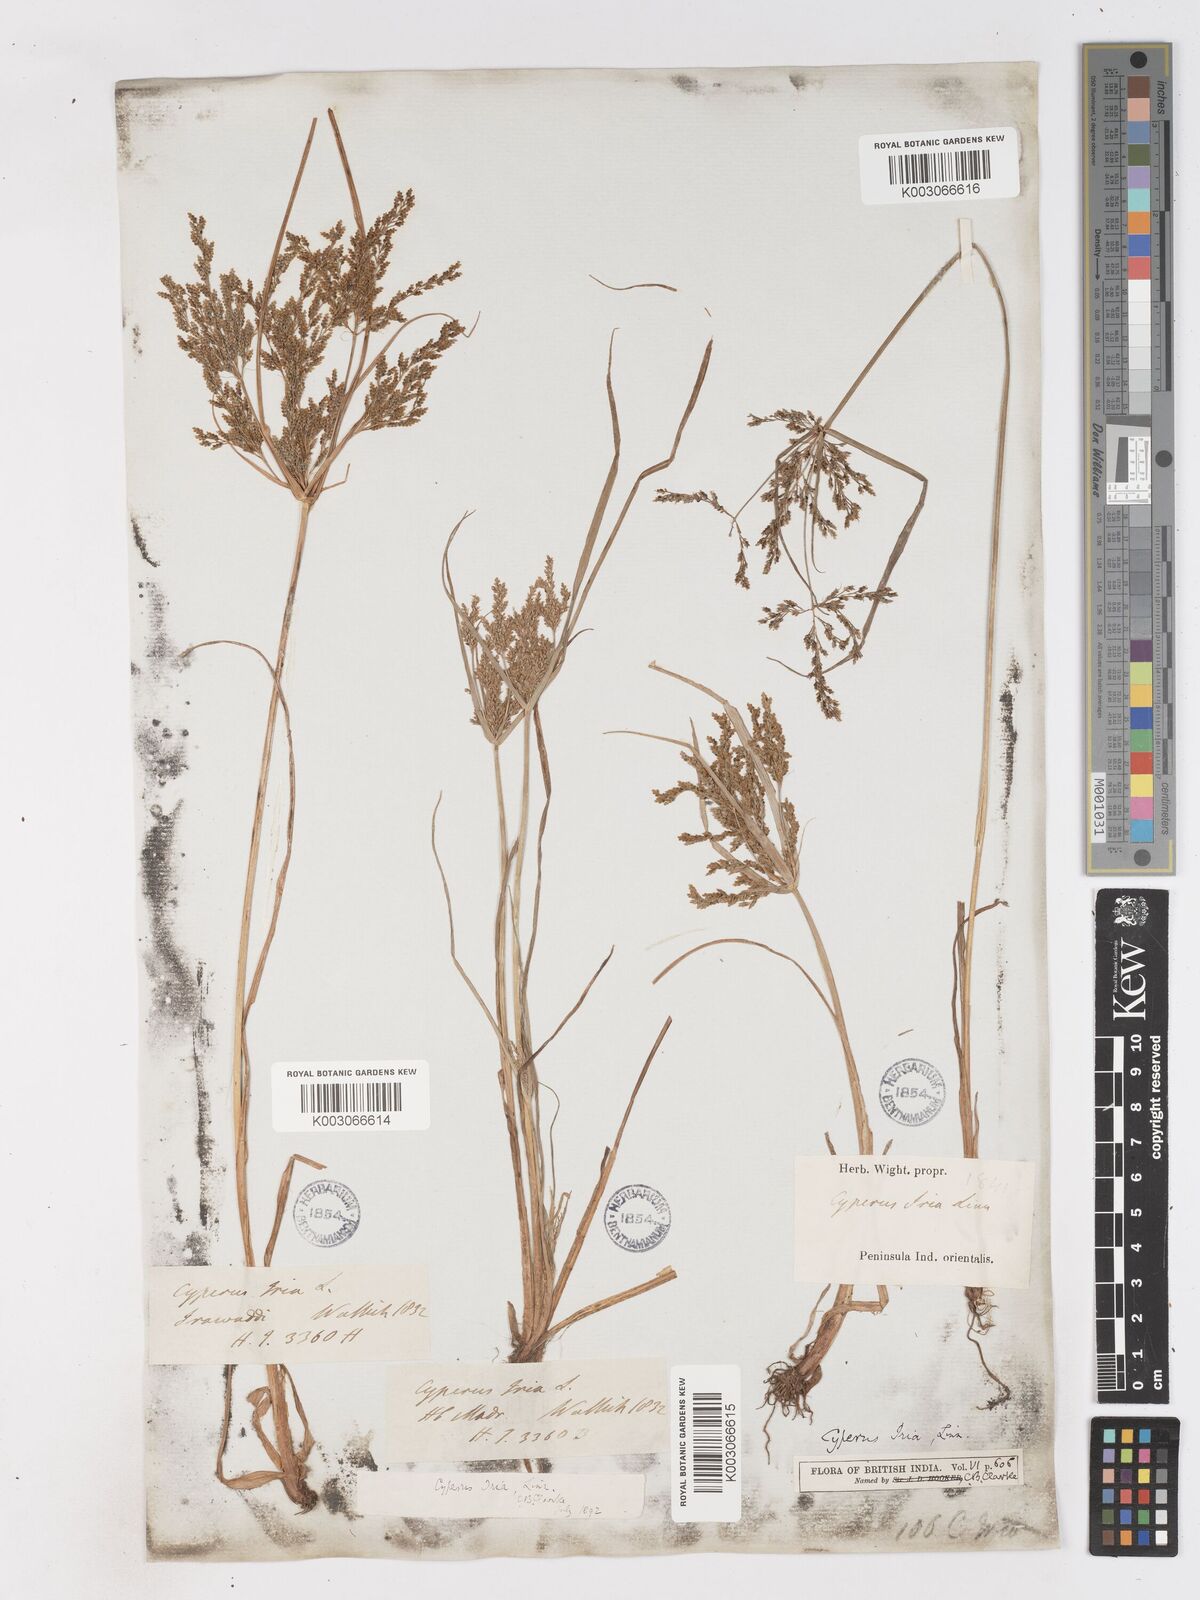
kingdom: Plantae
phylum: Tracheophyta
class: Liliopsida
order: Poales
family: Cyperaceae
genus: Cyperus
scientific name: Cyperus microiria
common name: Asian flatsedge
